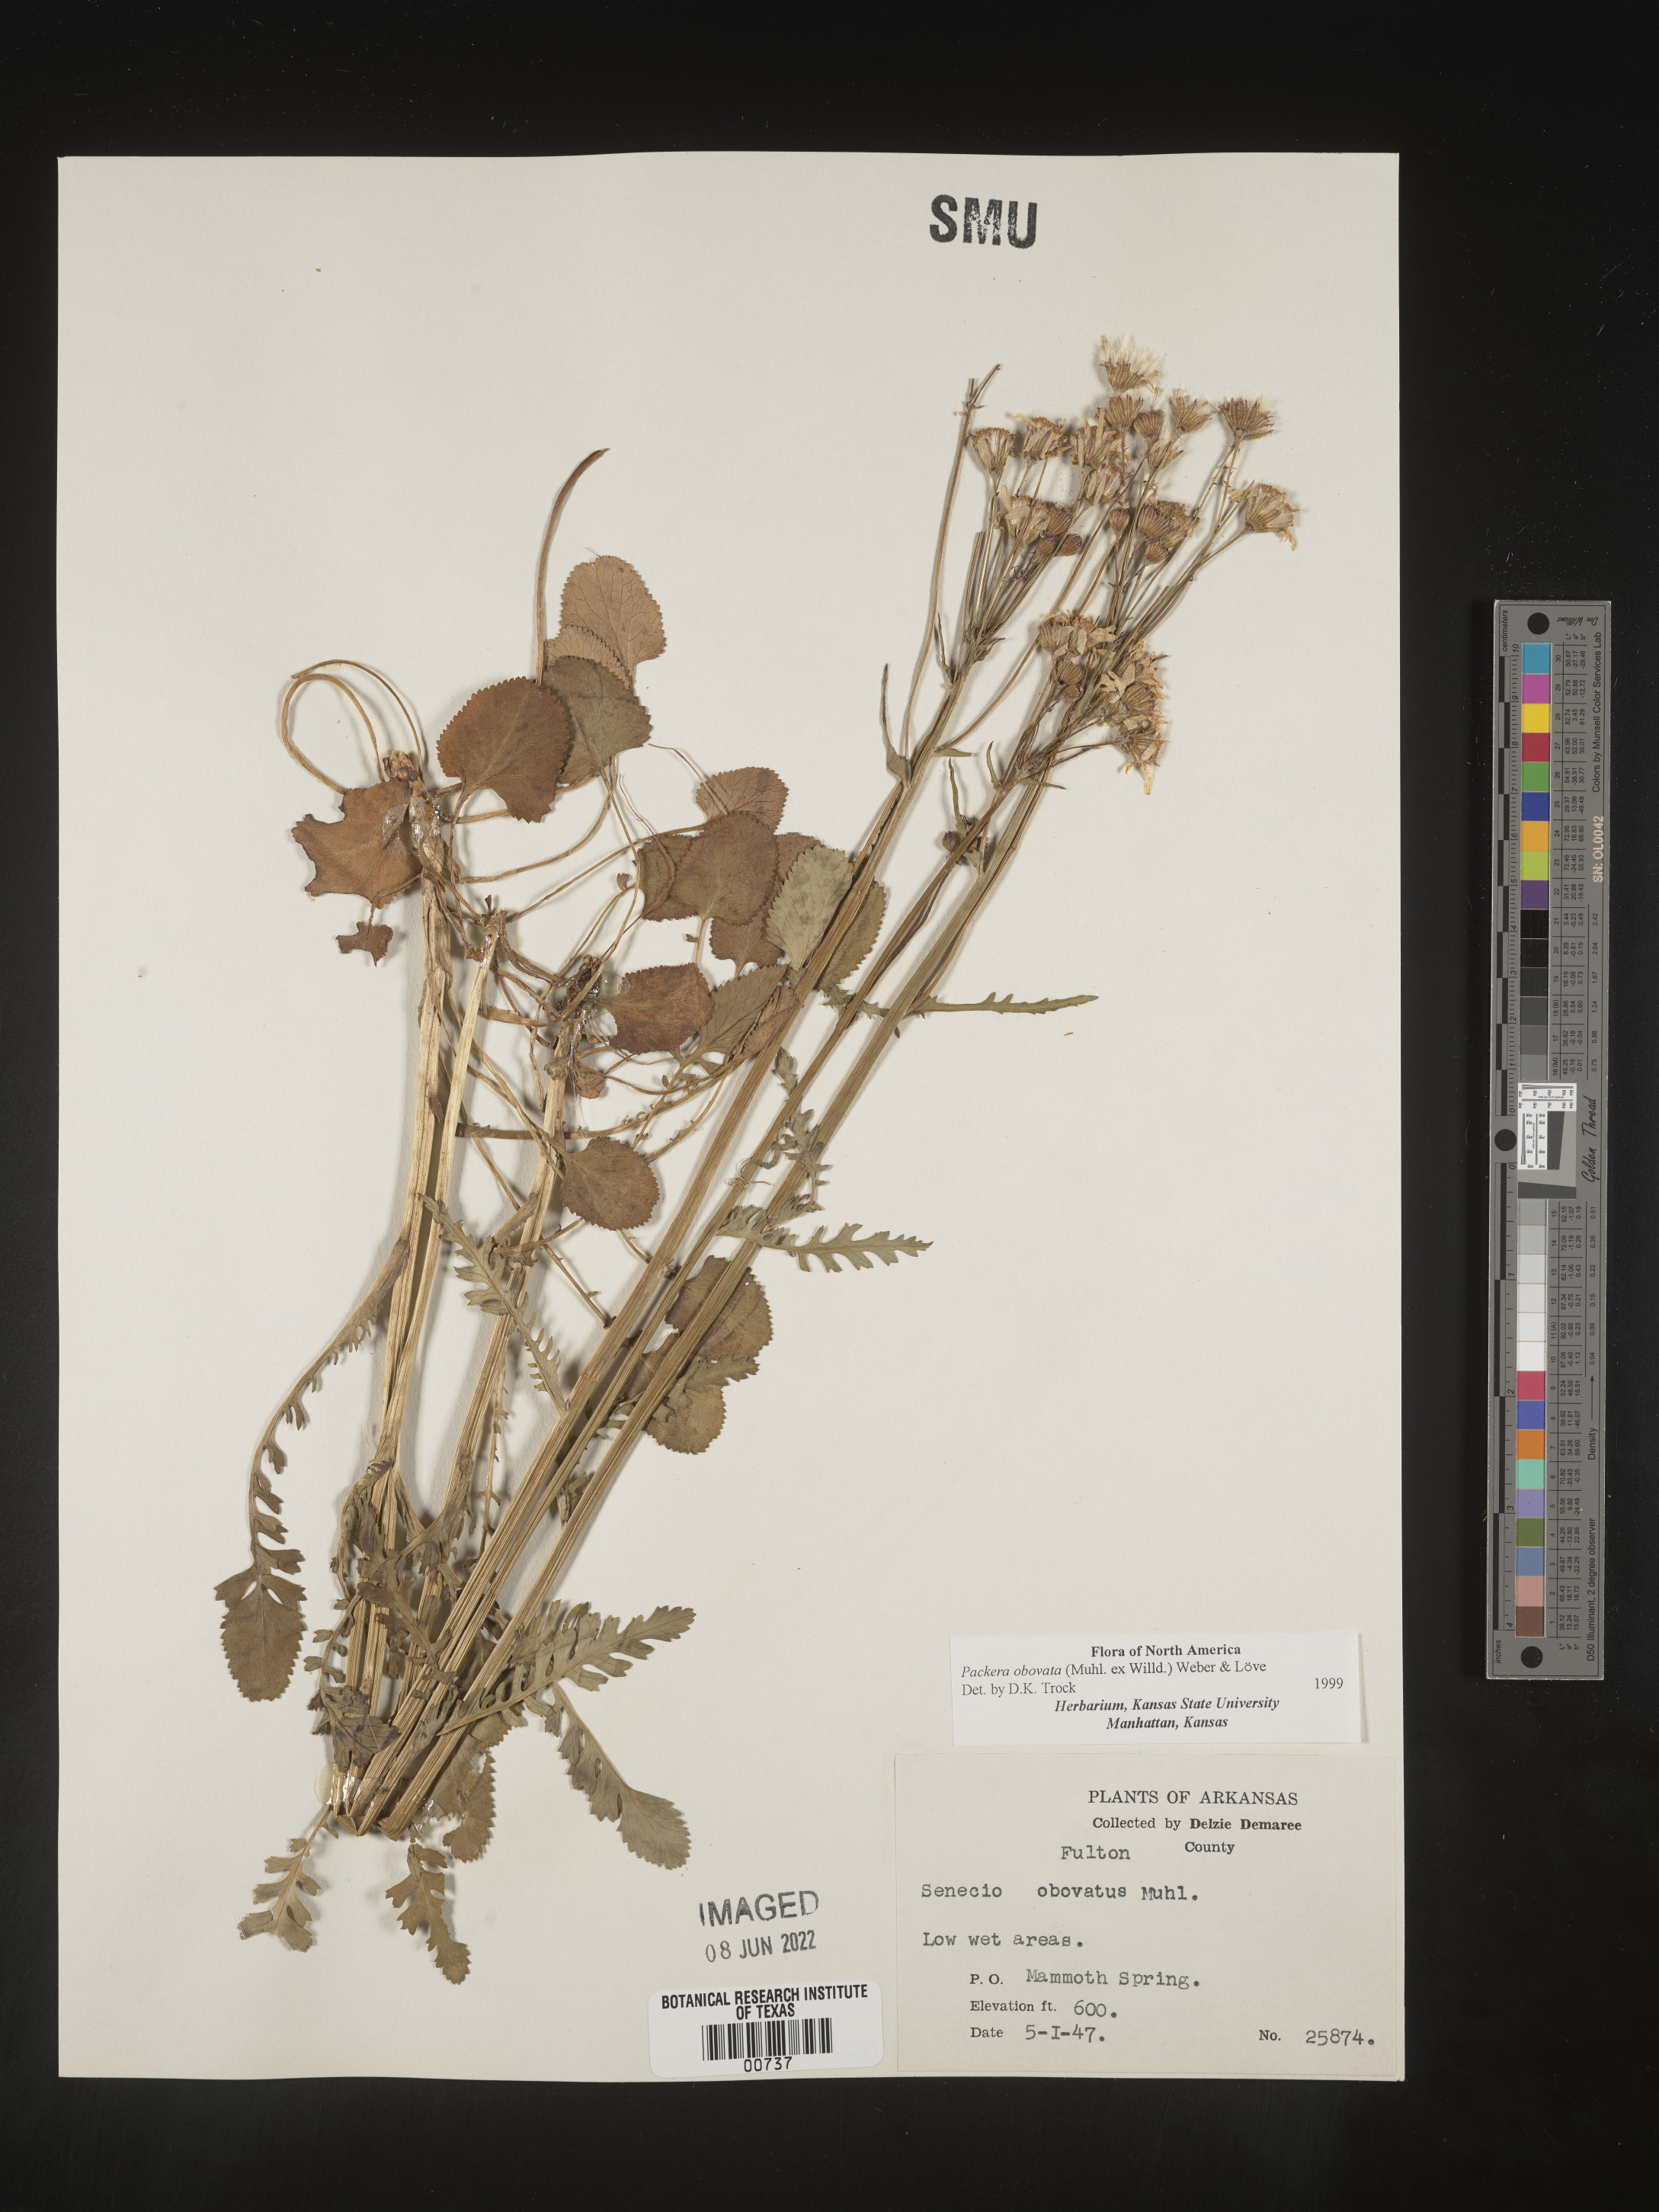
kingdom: Plantae
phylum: Tracheophyta
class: Magnoliopsida
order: Asterales
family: Asteraceae
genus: Packera
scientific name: Packera obovata
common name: Round-leaf ragwort
